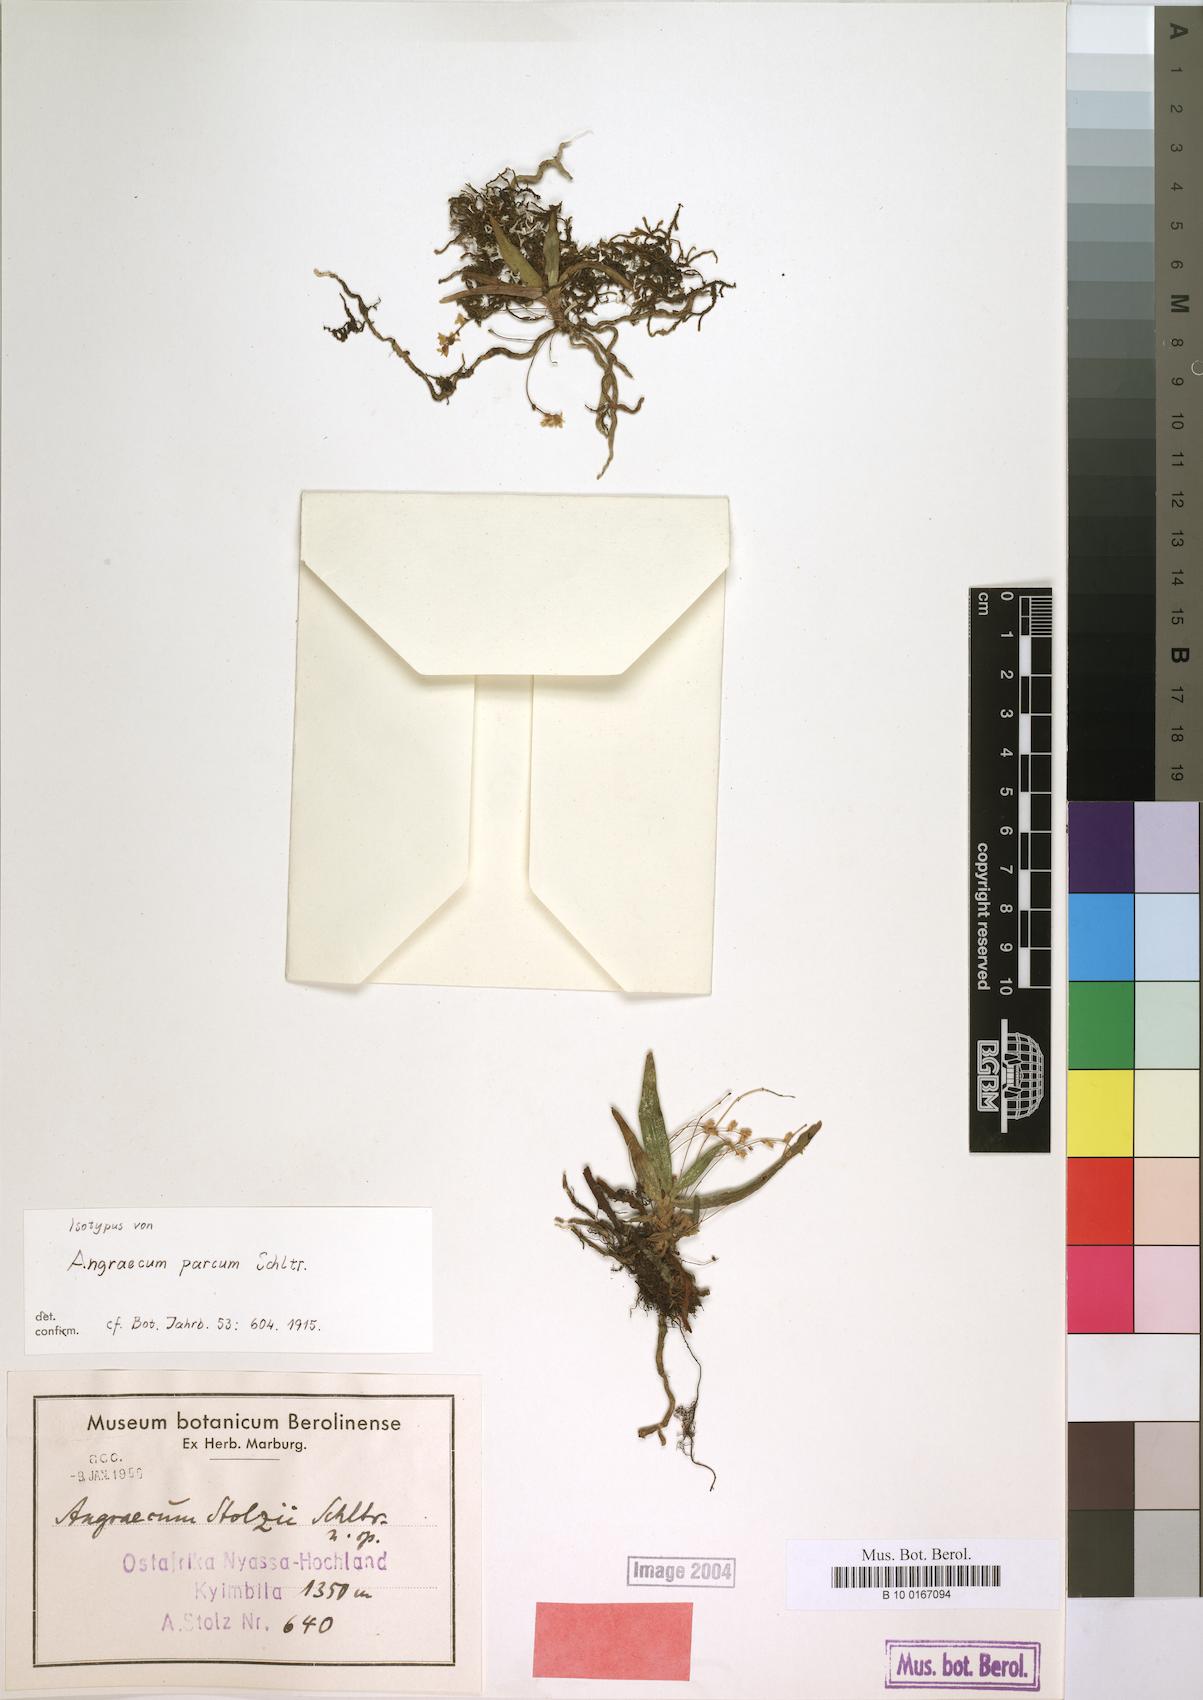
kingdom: Plantae
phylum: Tracheophyta
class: Liliopsida
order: Asparagales
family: Orchidaceae
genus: Angraecum
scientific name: Angraecum sacciferum
